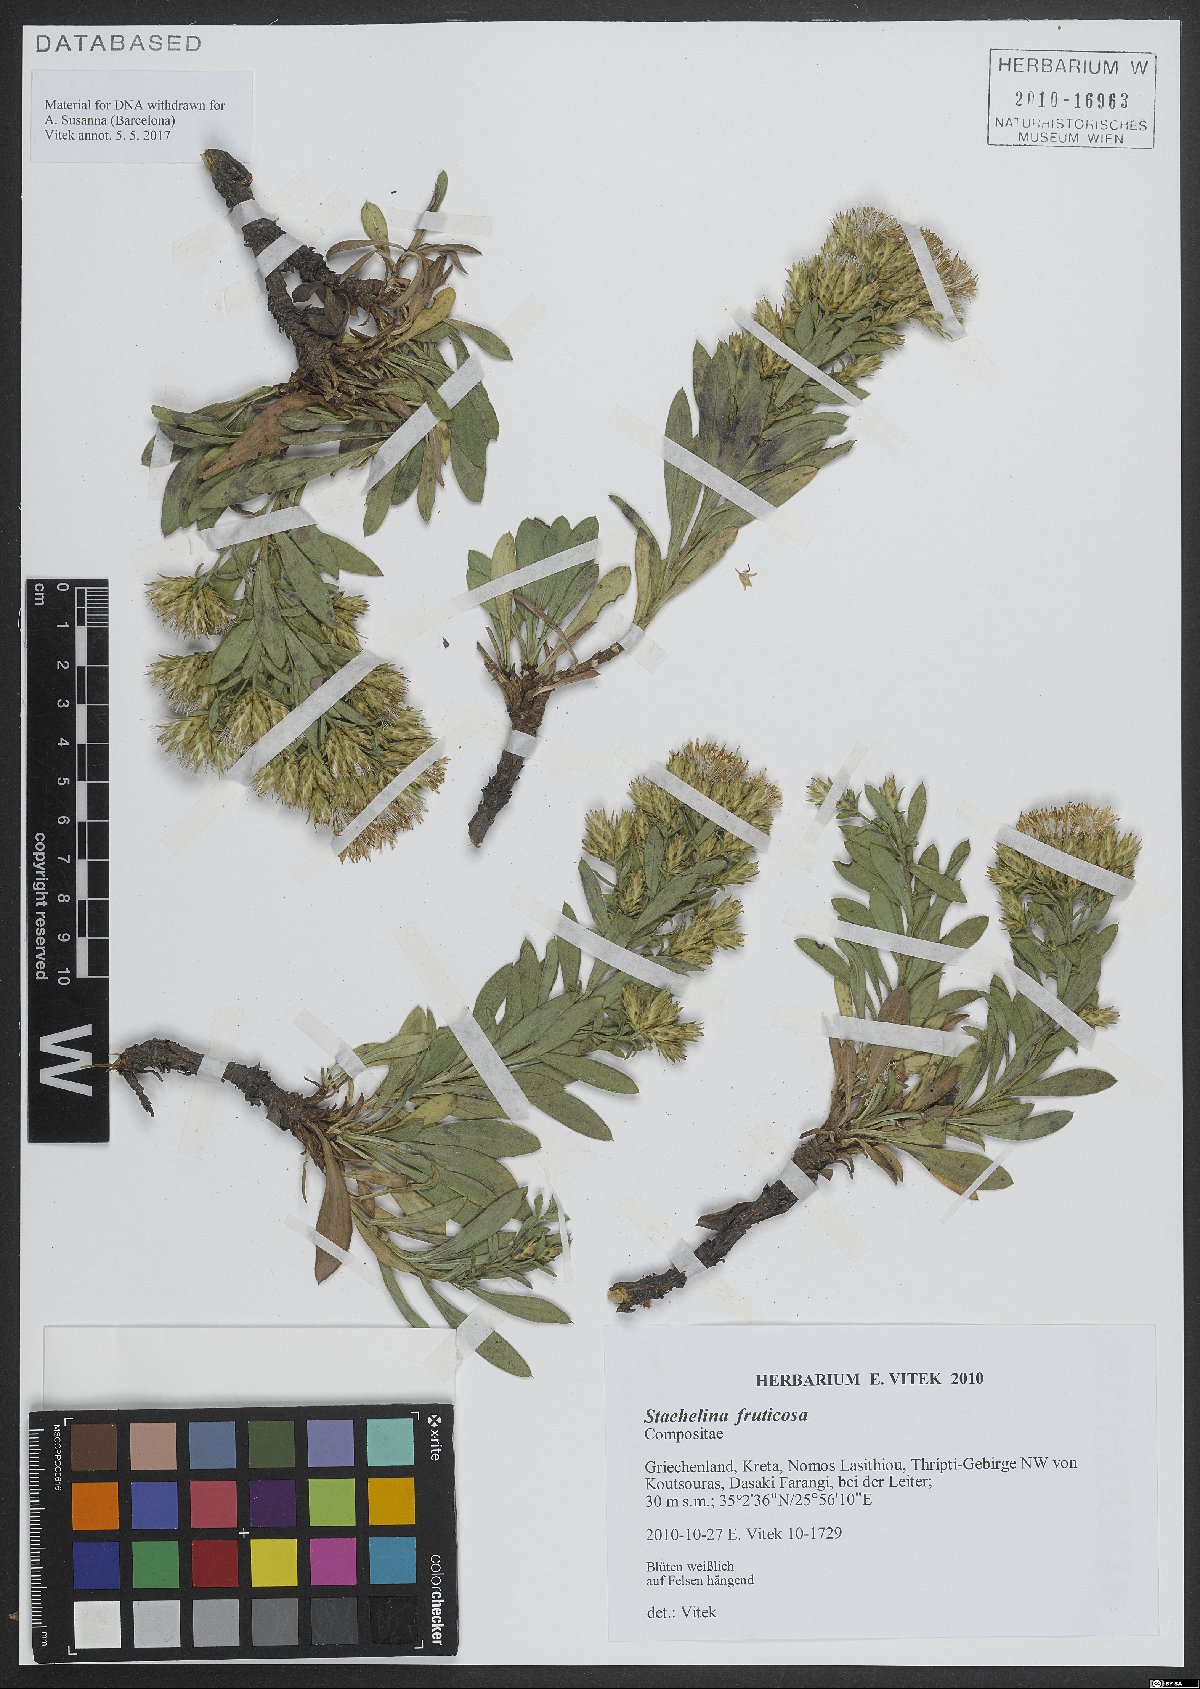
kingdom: Plantae
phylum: Tracheophyta
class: Magnoliopsida
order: Asterales
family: Asteraceae
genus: Hirtellina
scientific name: Hirtellina fruticosa
